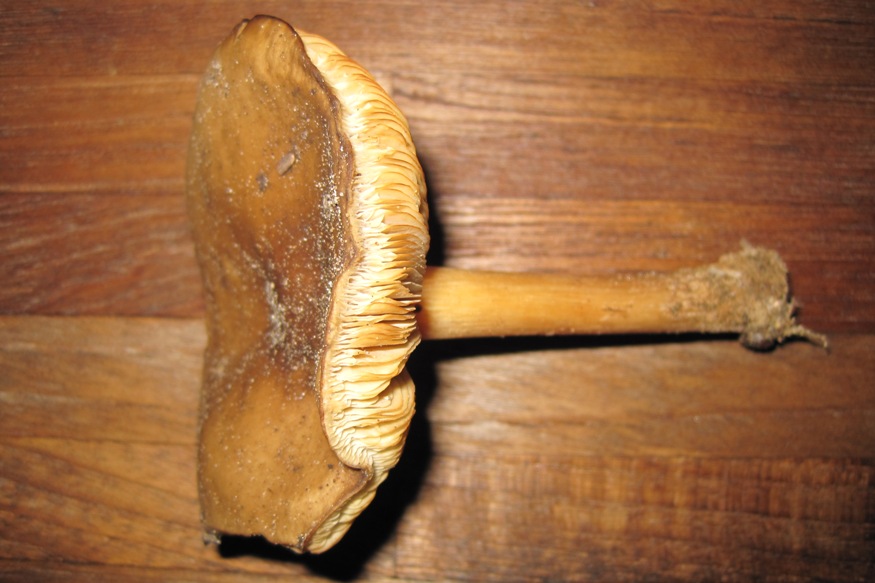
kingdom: Fungi
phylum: Basidiomycota
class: Agaricomycetes
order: Agaricales
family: Tricholomataceae
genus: Melanoleuca
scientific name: Melanoleuca cognata
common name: gyldengrå munkehat
